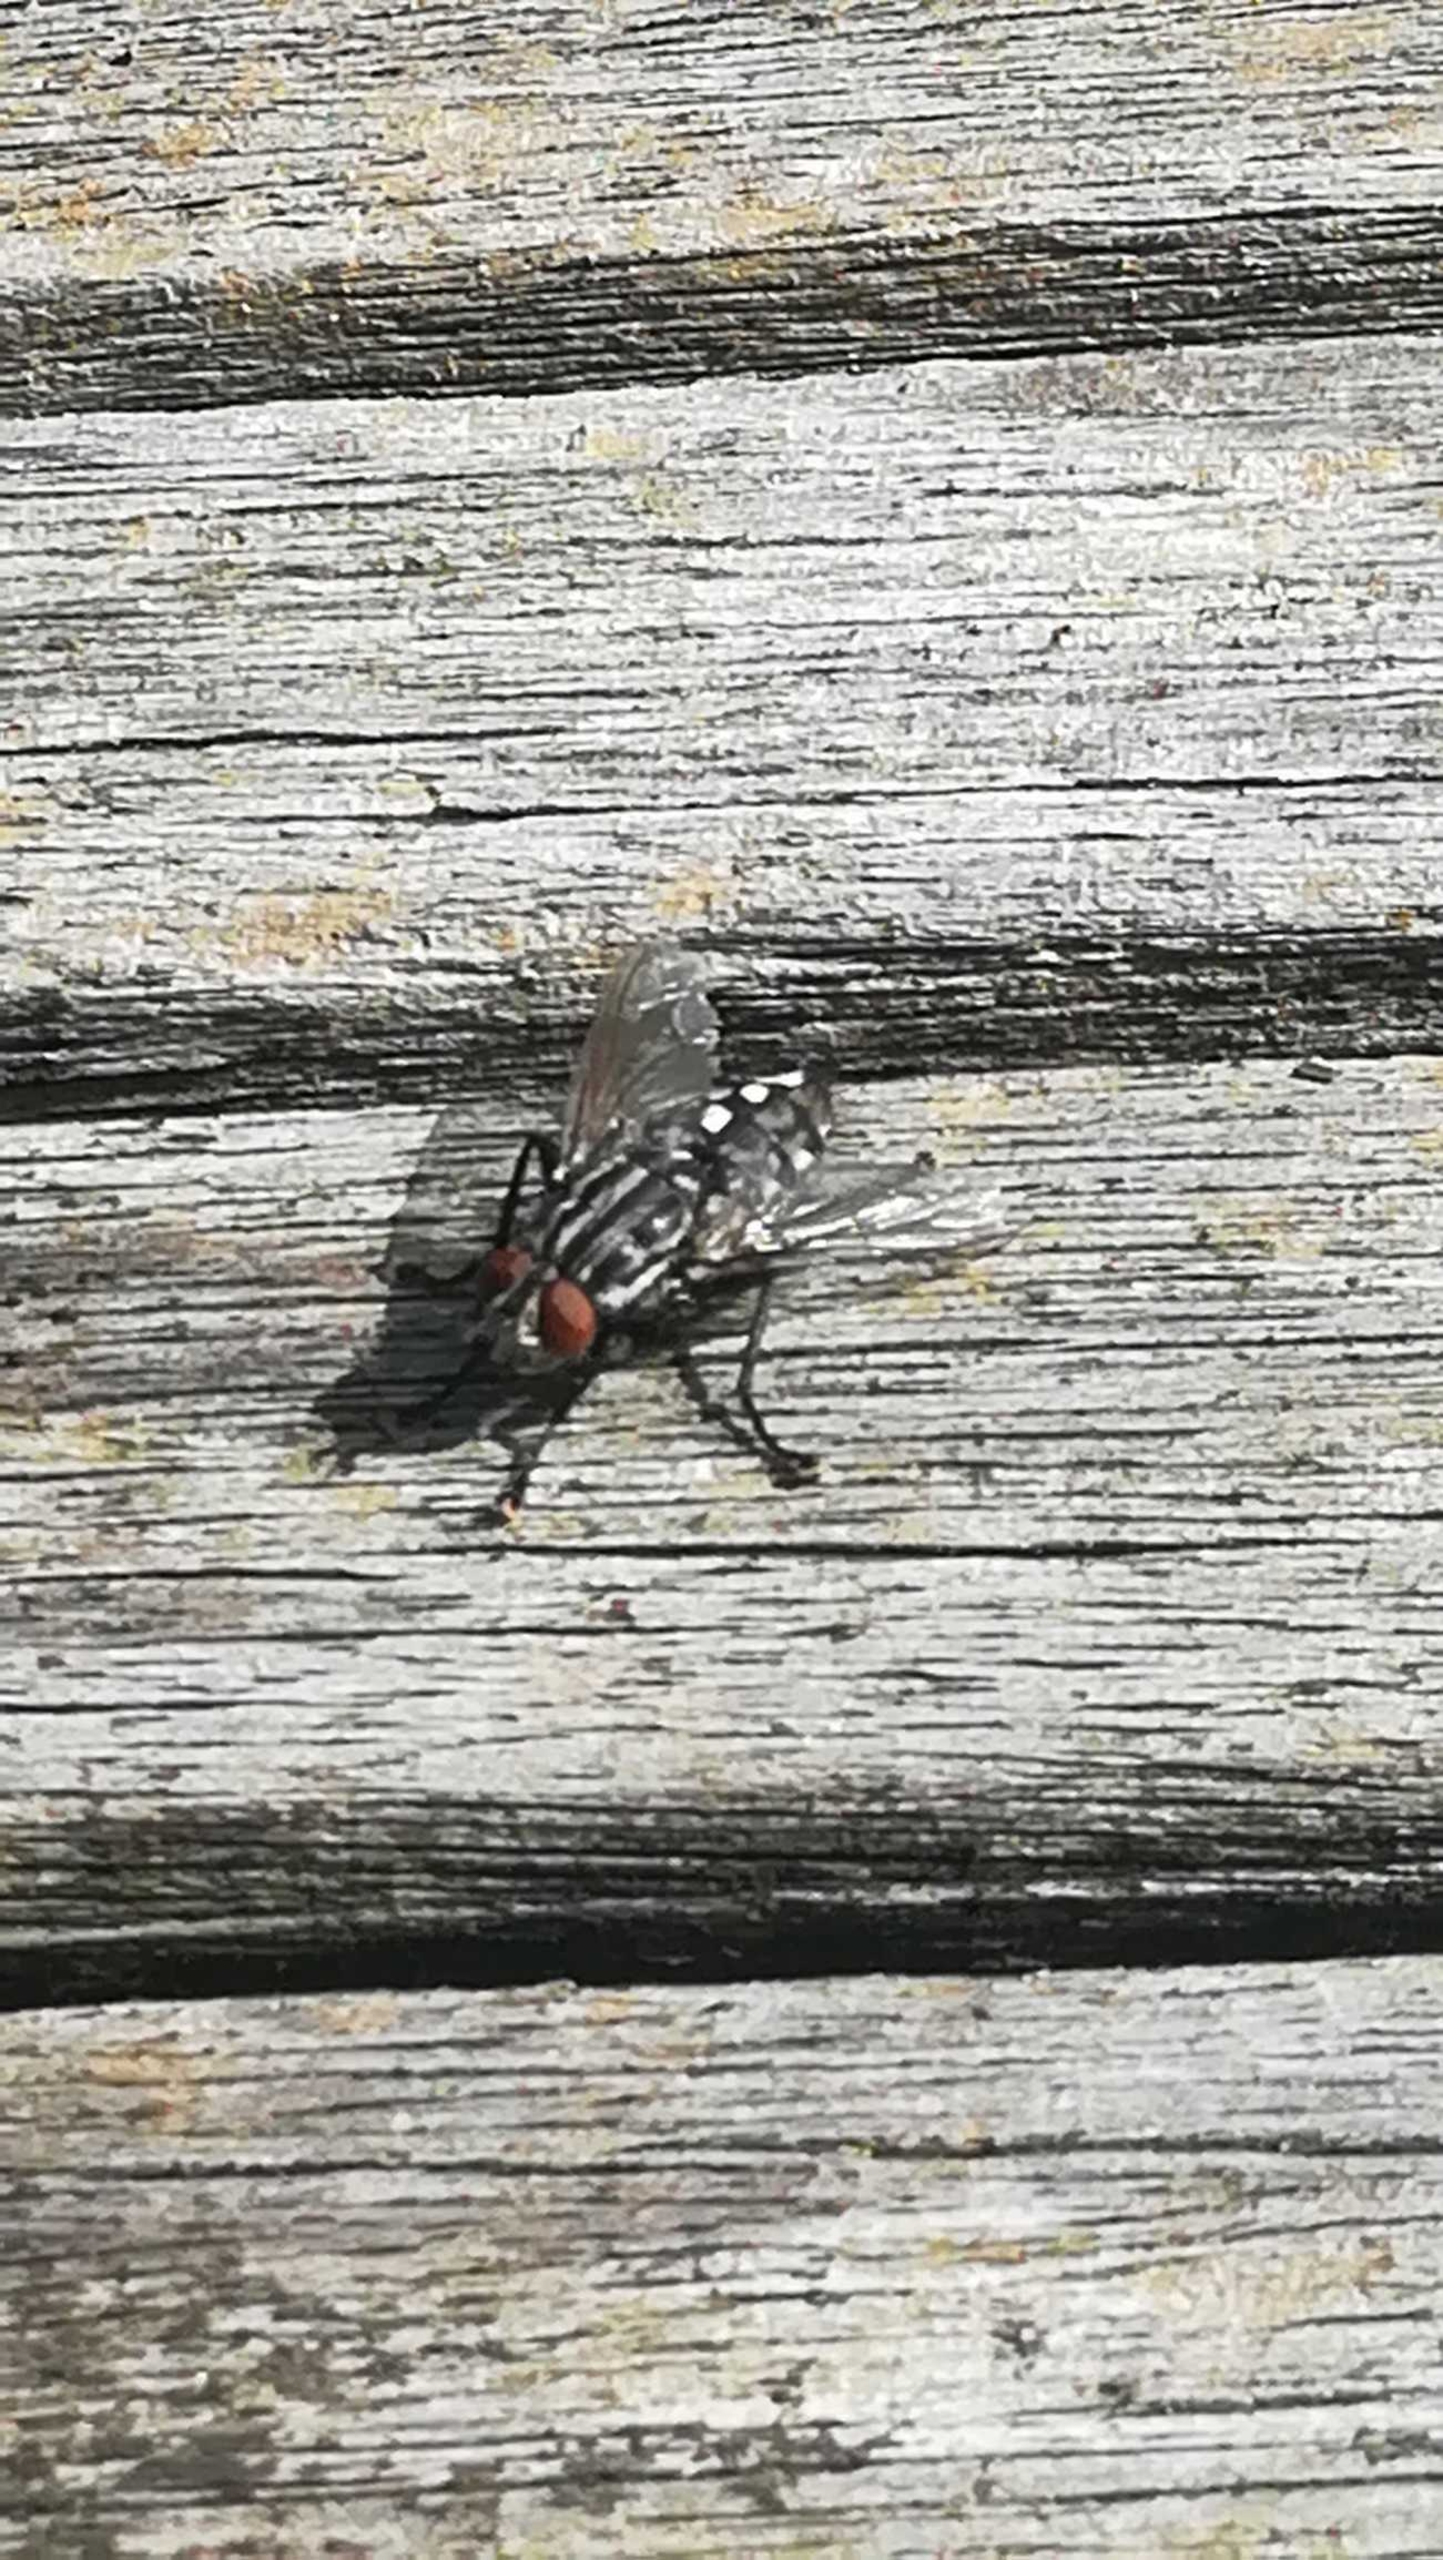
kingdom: Animalia
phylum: Arthropoda
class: Insecta
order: Diptera
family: Sarcophagidae
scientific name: Sarcophagidae
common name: Kødfluer
